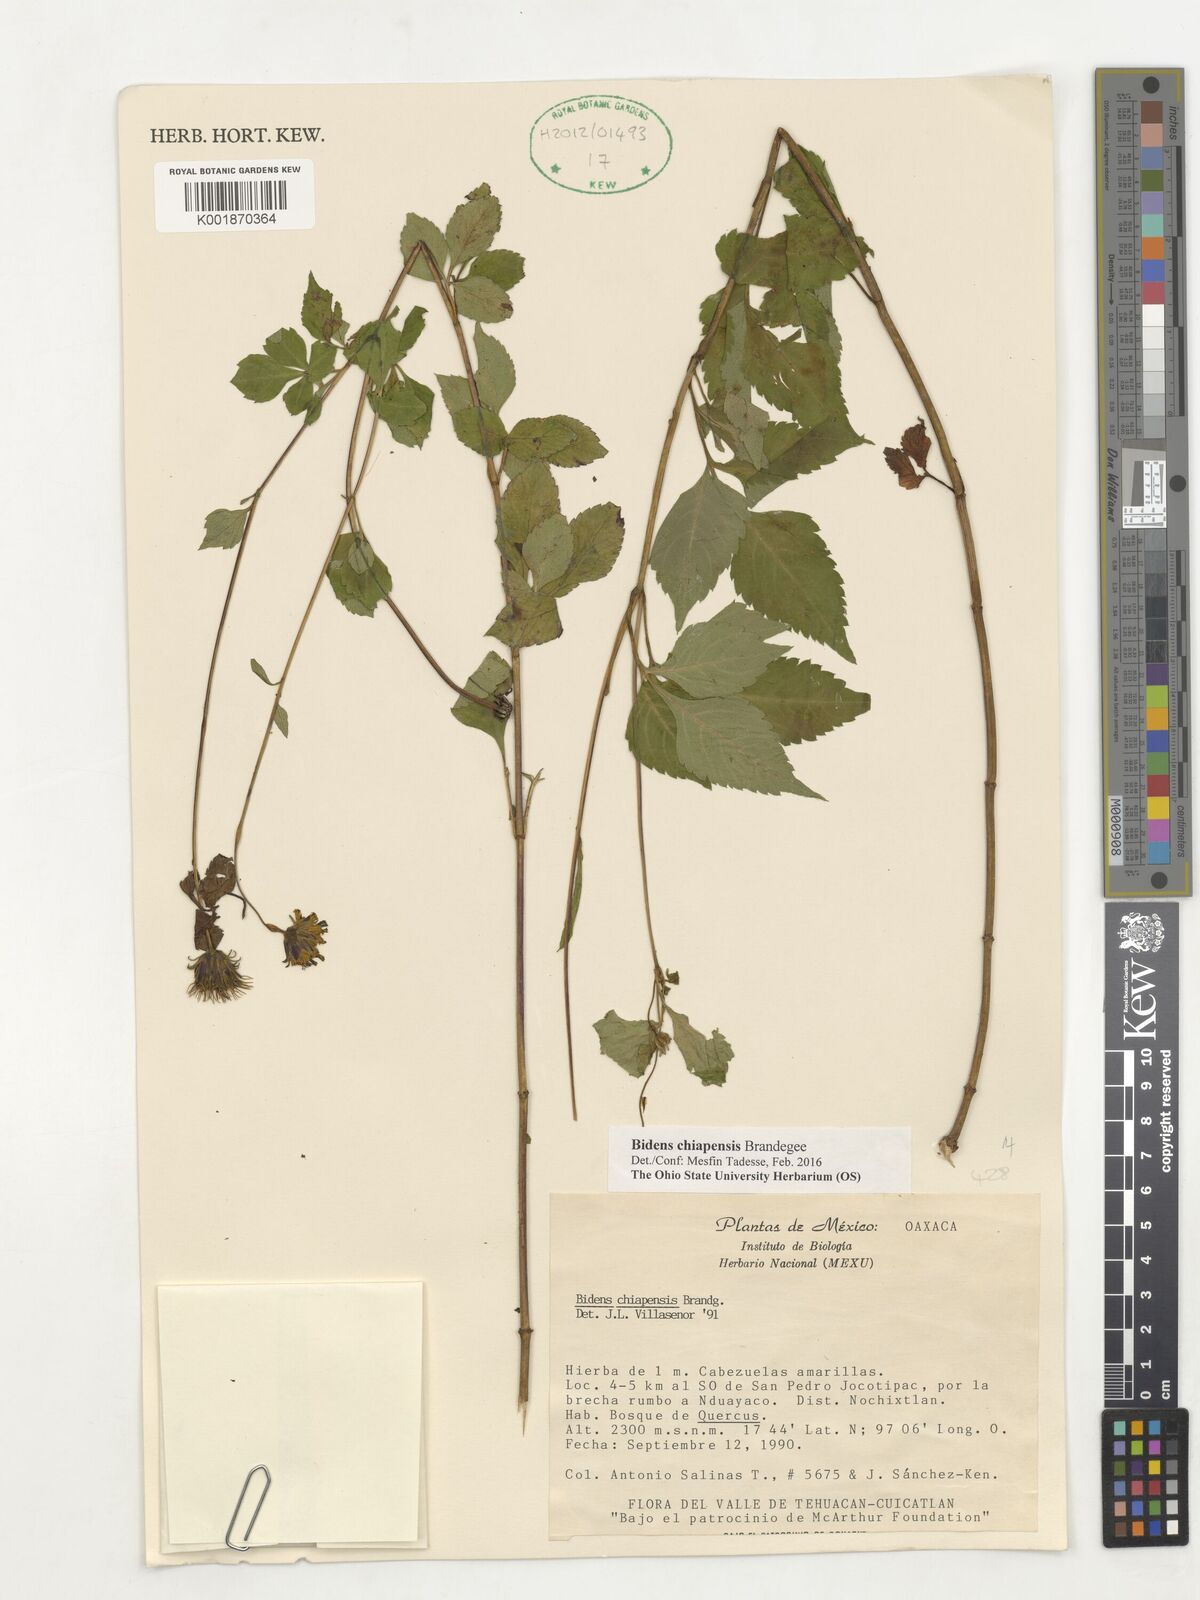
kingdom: Plantae
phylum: Tracheophyta
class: Magnoliopsida
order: Asterales
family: Asteraceae
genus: Bidens
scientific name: Bidens chiapensis
